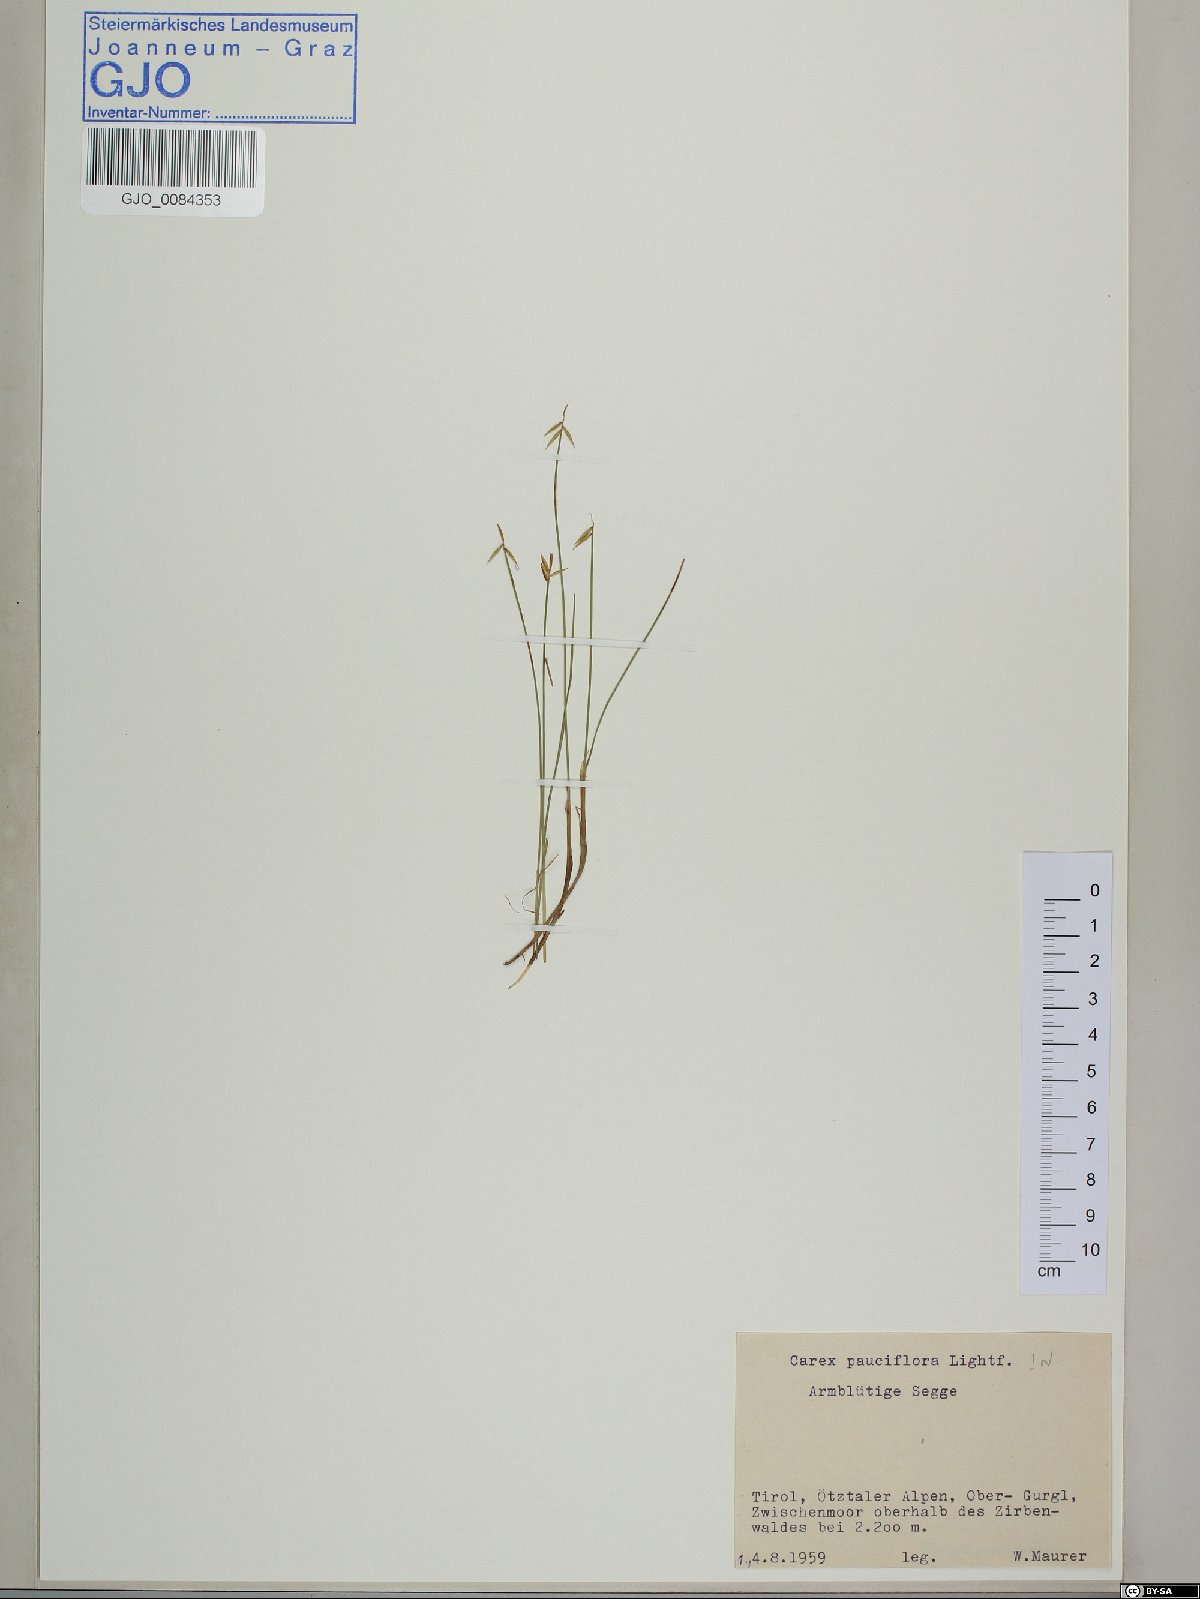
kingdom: Plantae
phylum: Tracheophyta
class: Liliopsida
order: Poales
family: Cyperaceae
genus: Carex
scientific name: Carex pauciflora
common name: Few-flowered sedge
